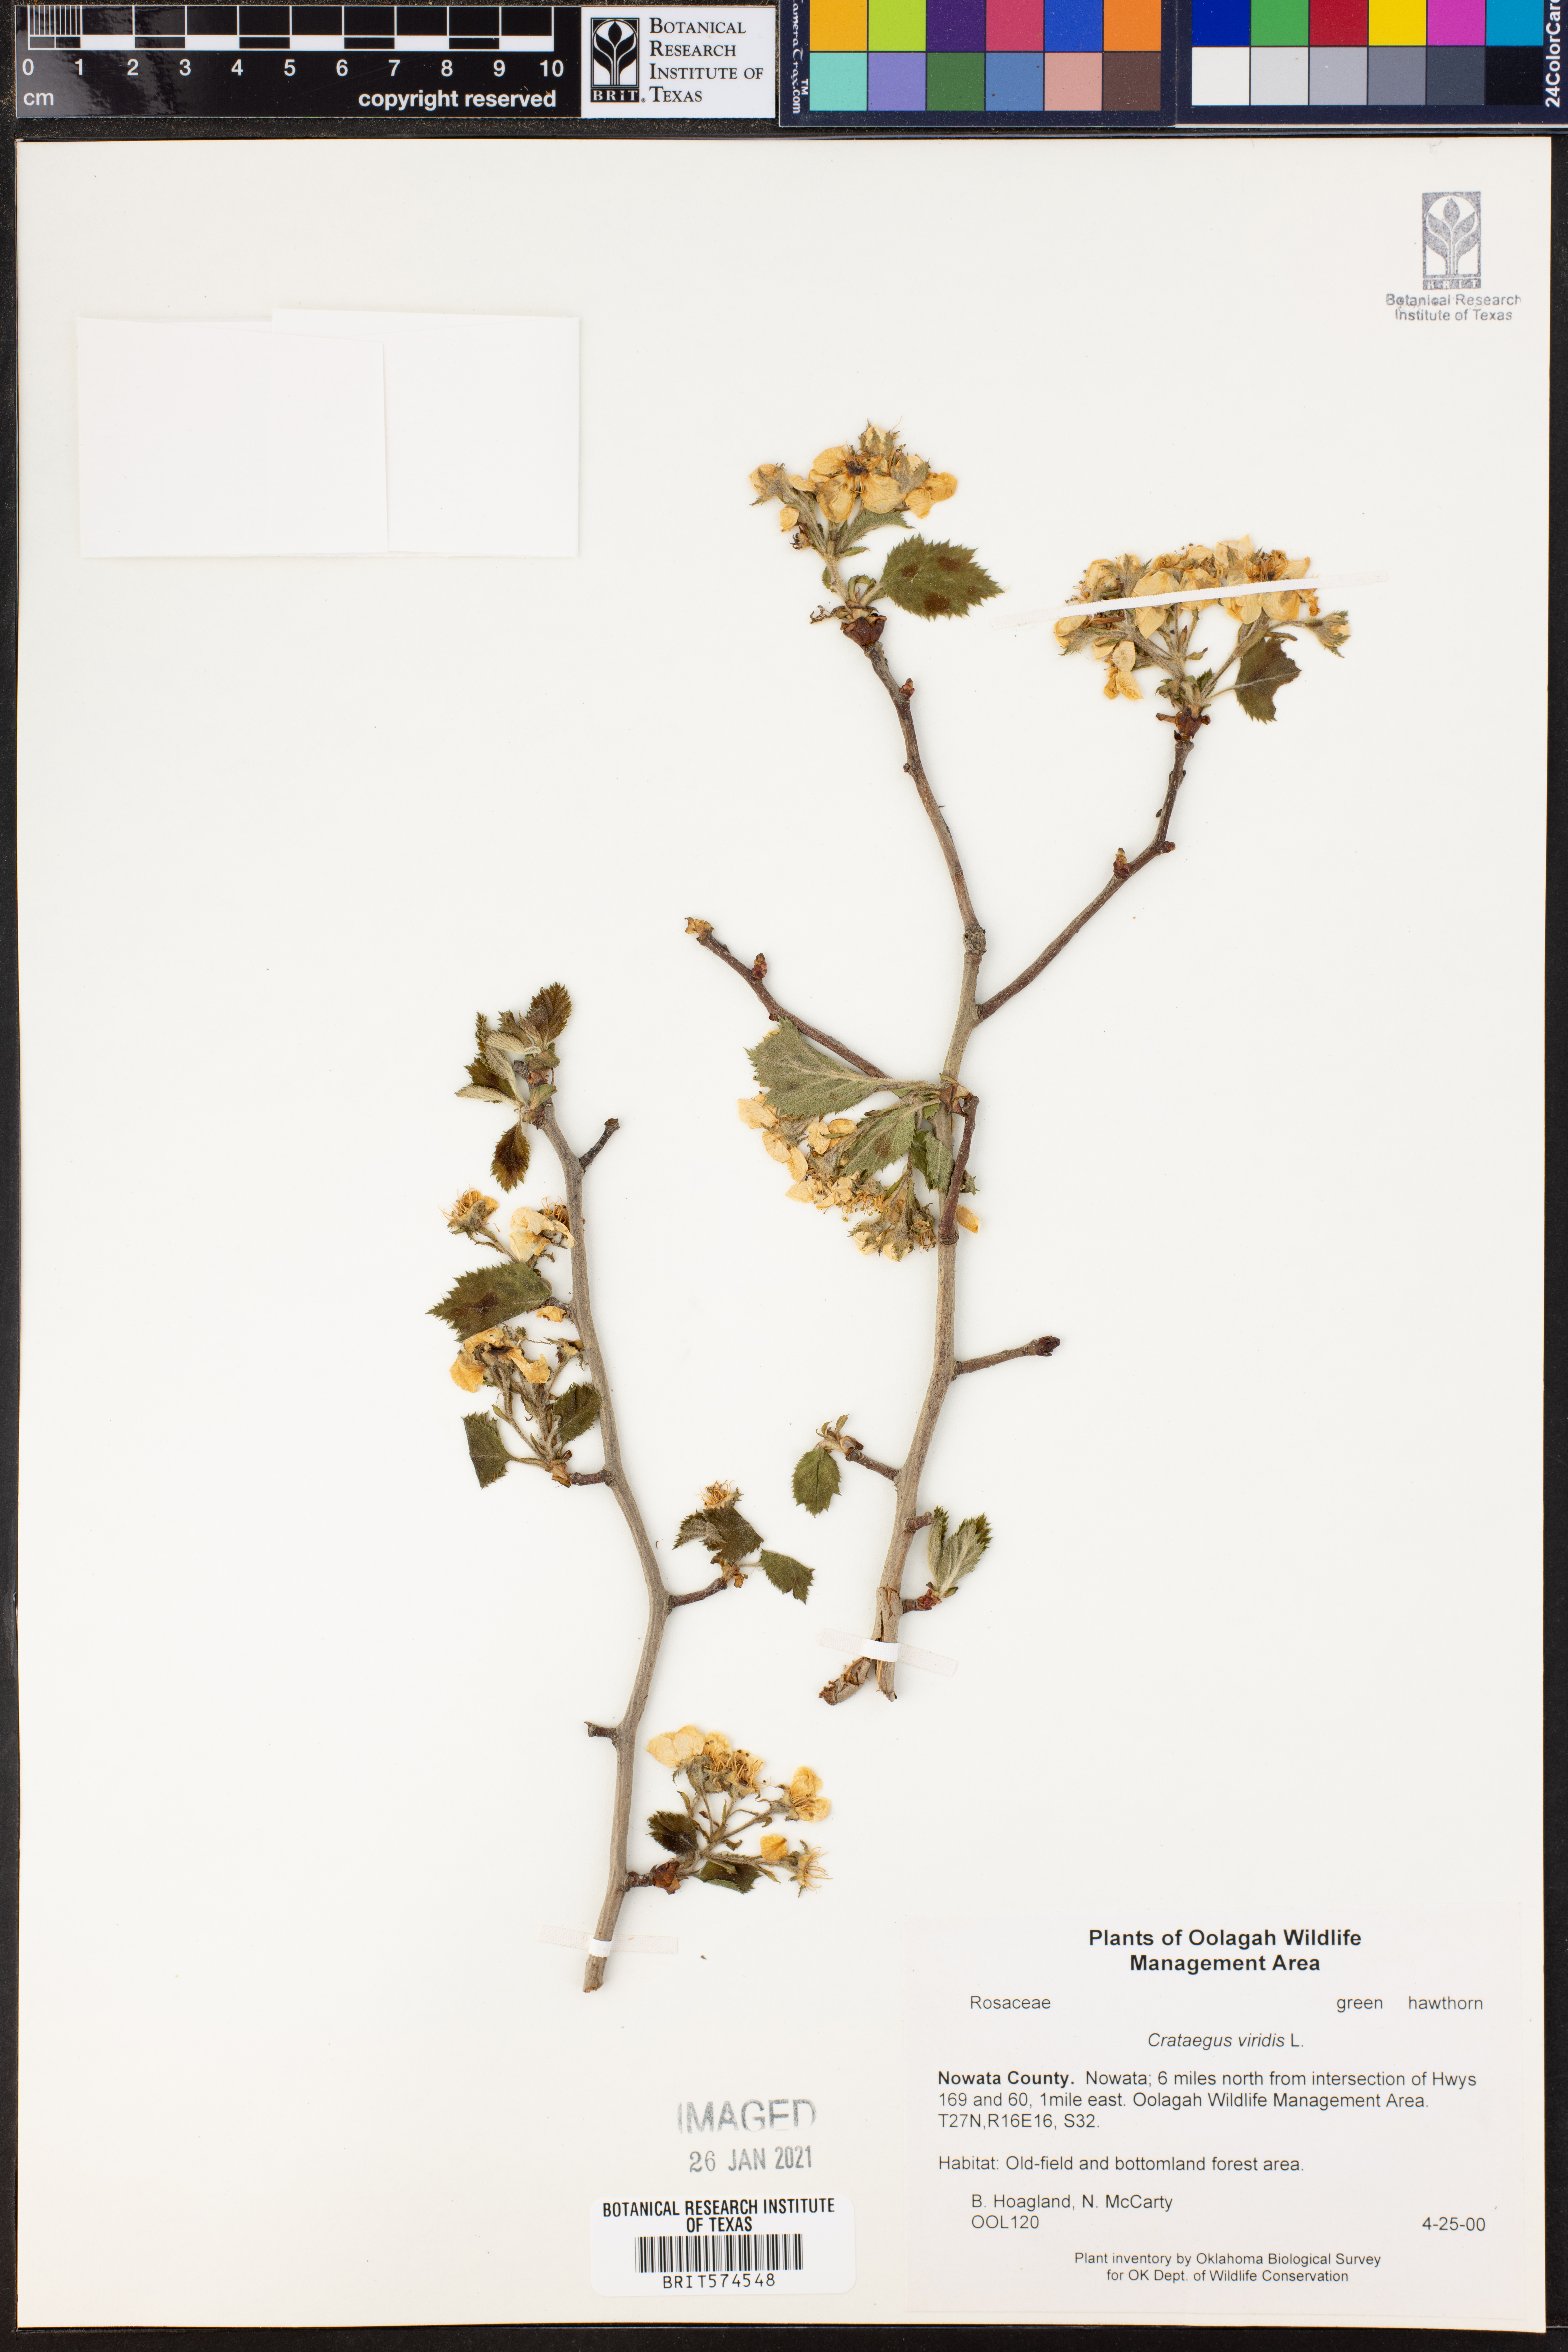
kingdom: Plantae
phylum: Tracheophyta
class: Magnoliopsida
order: Rosales
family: Rosaceae
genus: Crataegus
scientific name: Crataegus viridis
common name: Southernthorn
